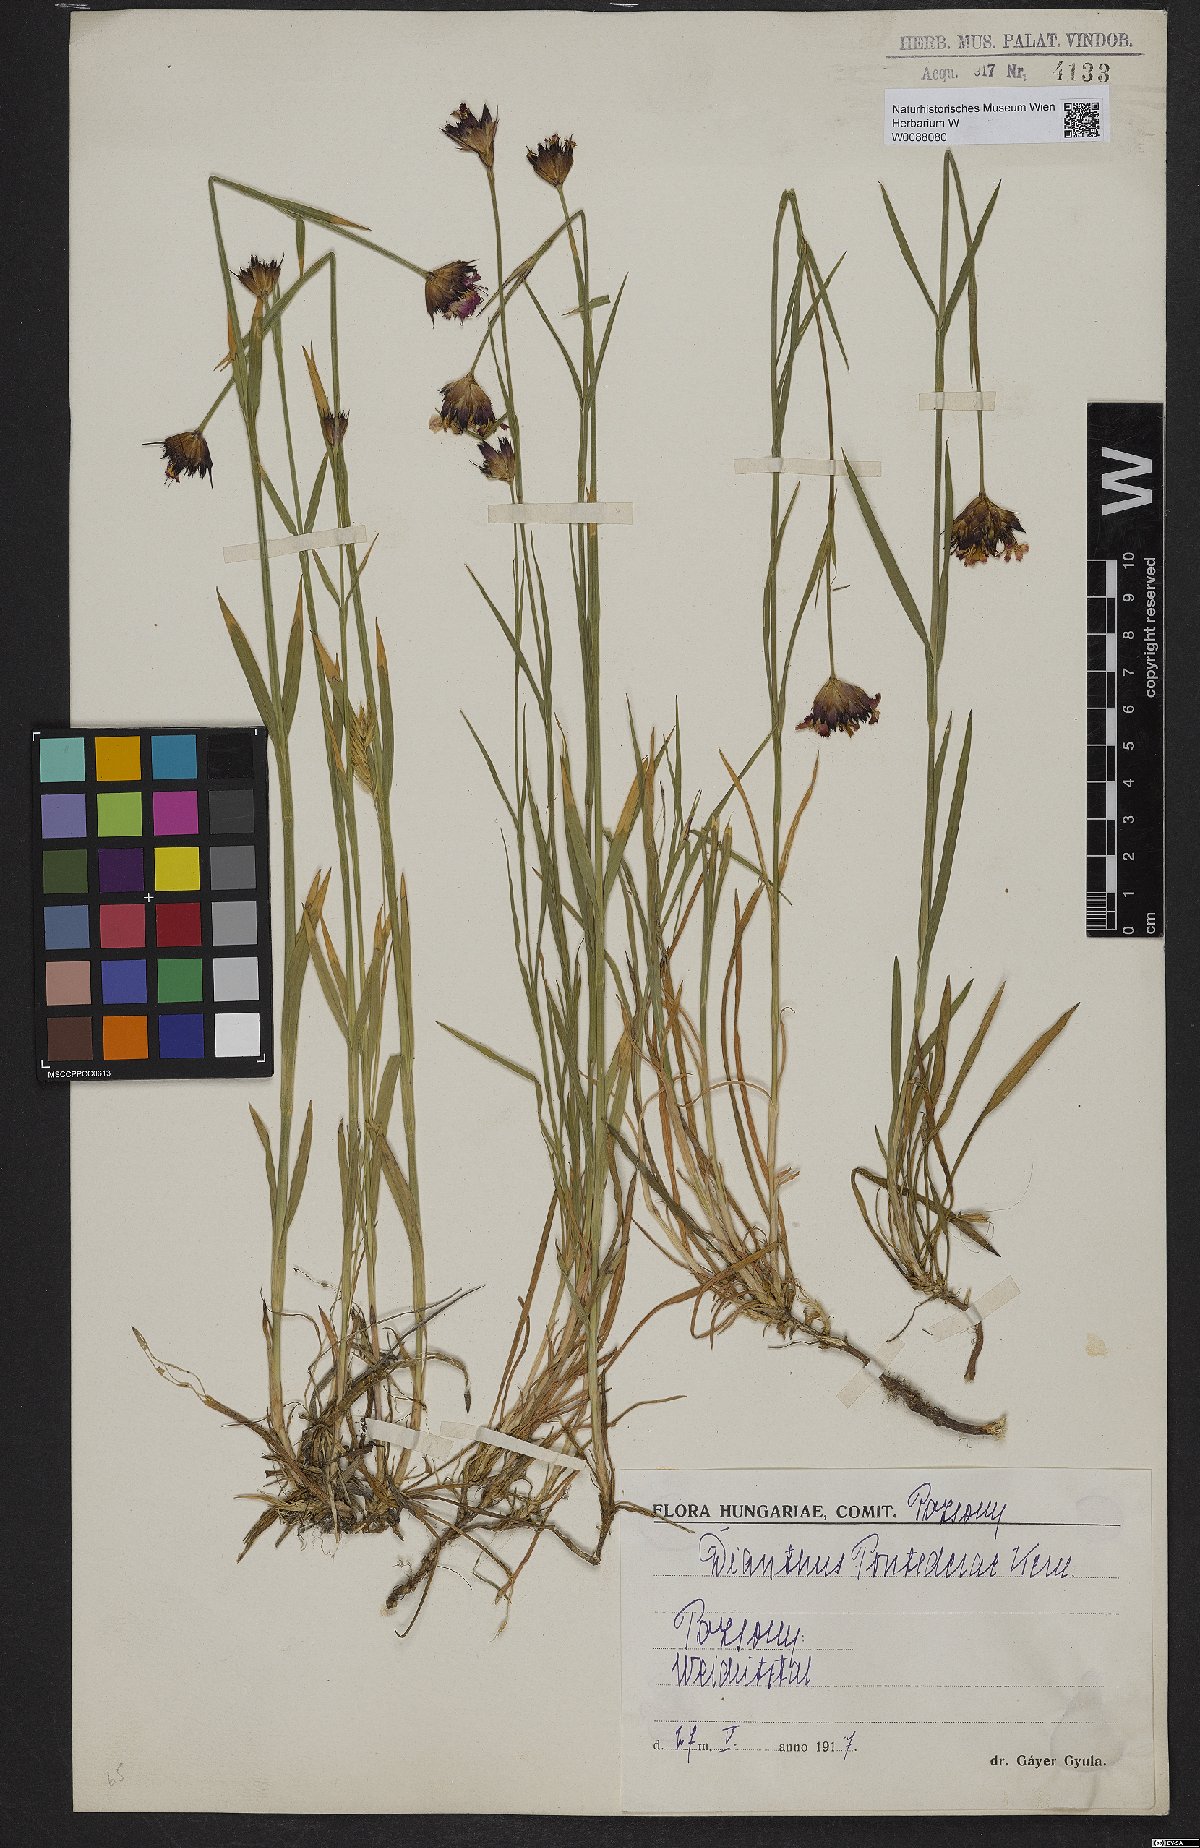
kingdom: Plantae
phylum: Tracheophyta
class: Magnoliopsida
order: Caryophyllales
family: Caryophyllaceae
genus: Dianthus
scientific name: Dianthus pontederae
